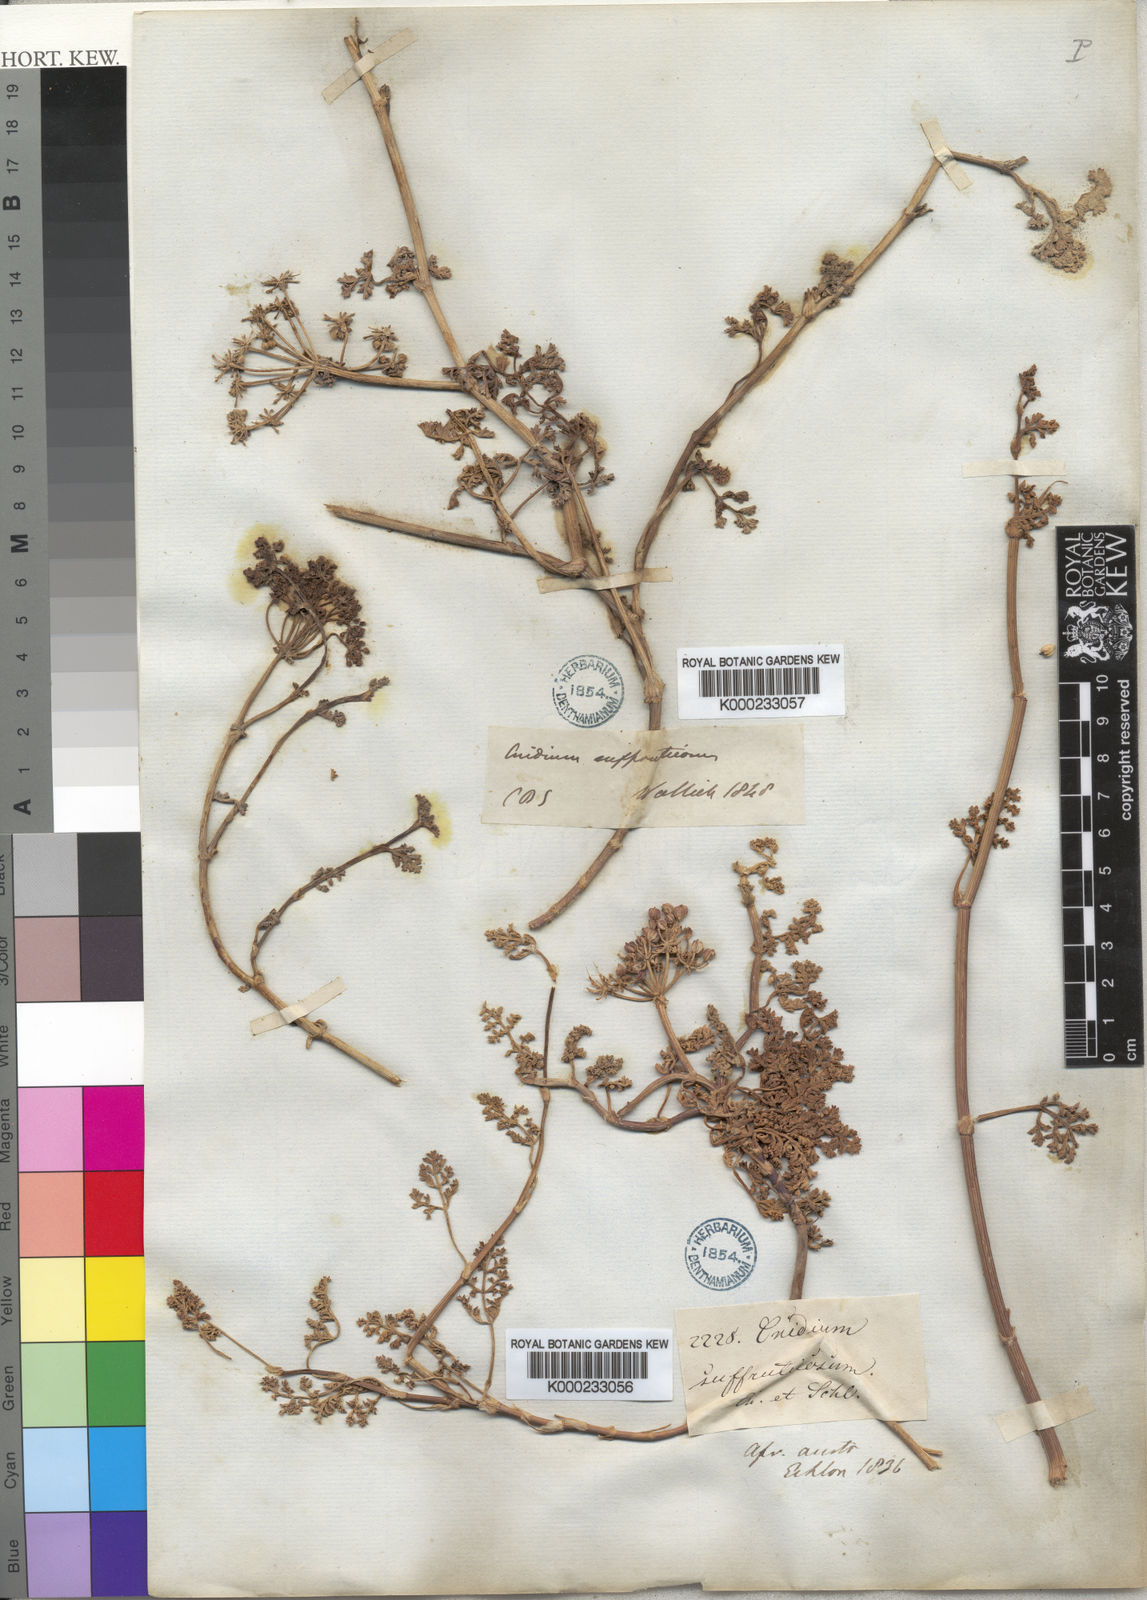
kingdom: Plantae
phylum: Tracheophyta
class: Magnoliopsida
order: Apiales
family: Apiaceae
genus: Dasispermum
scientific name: Dasispermum suffruticosum
